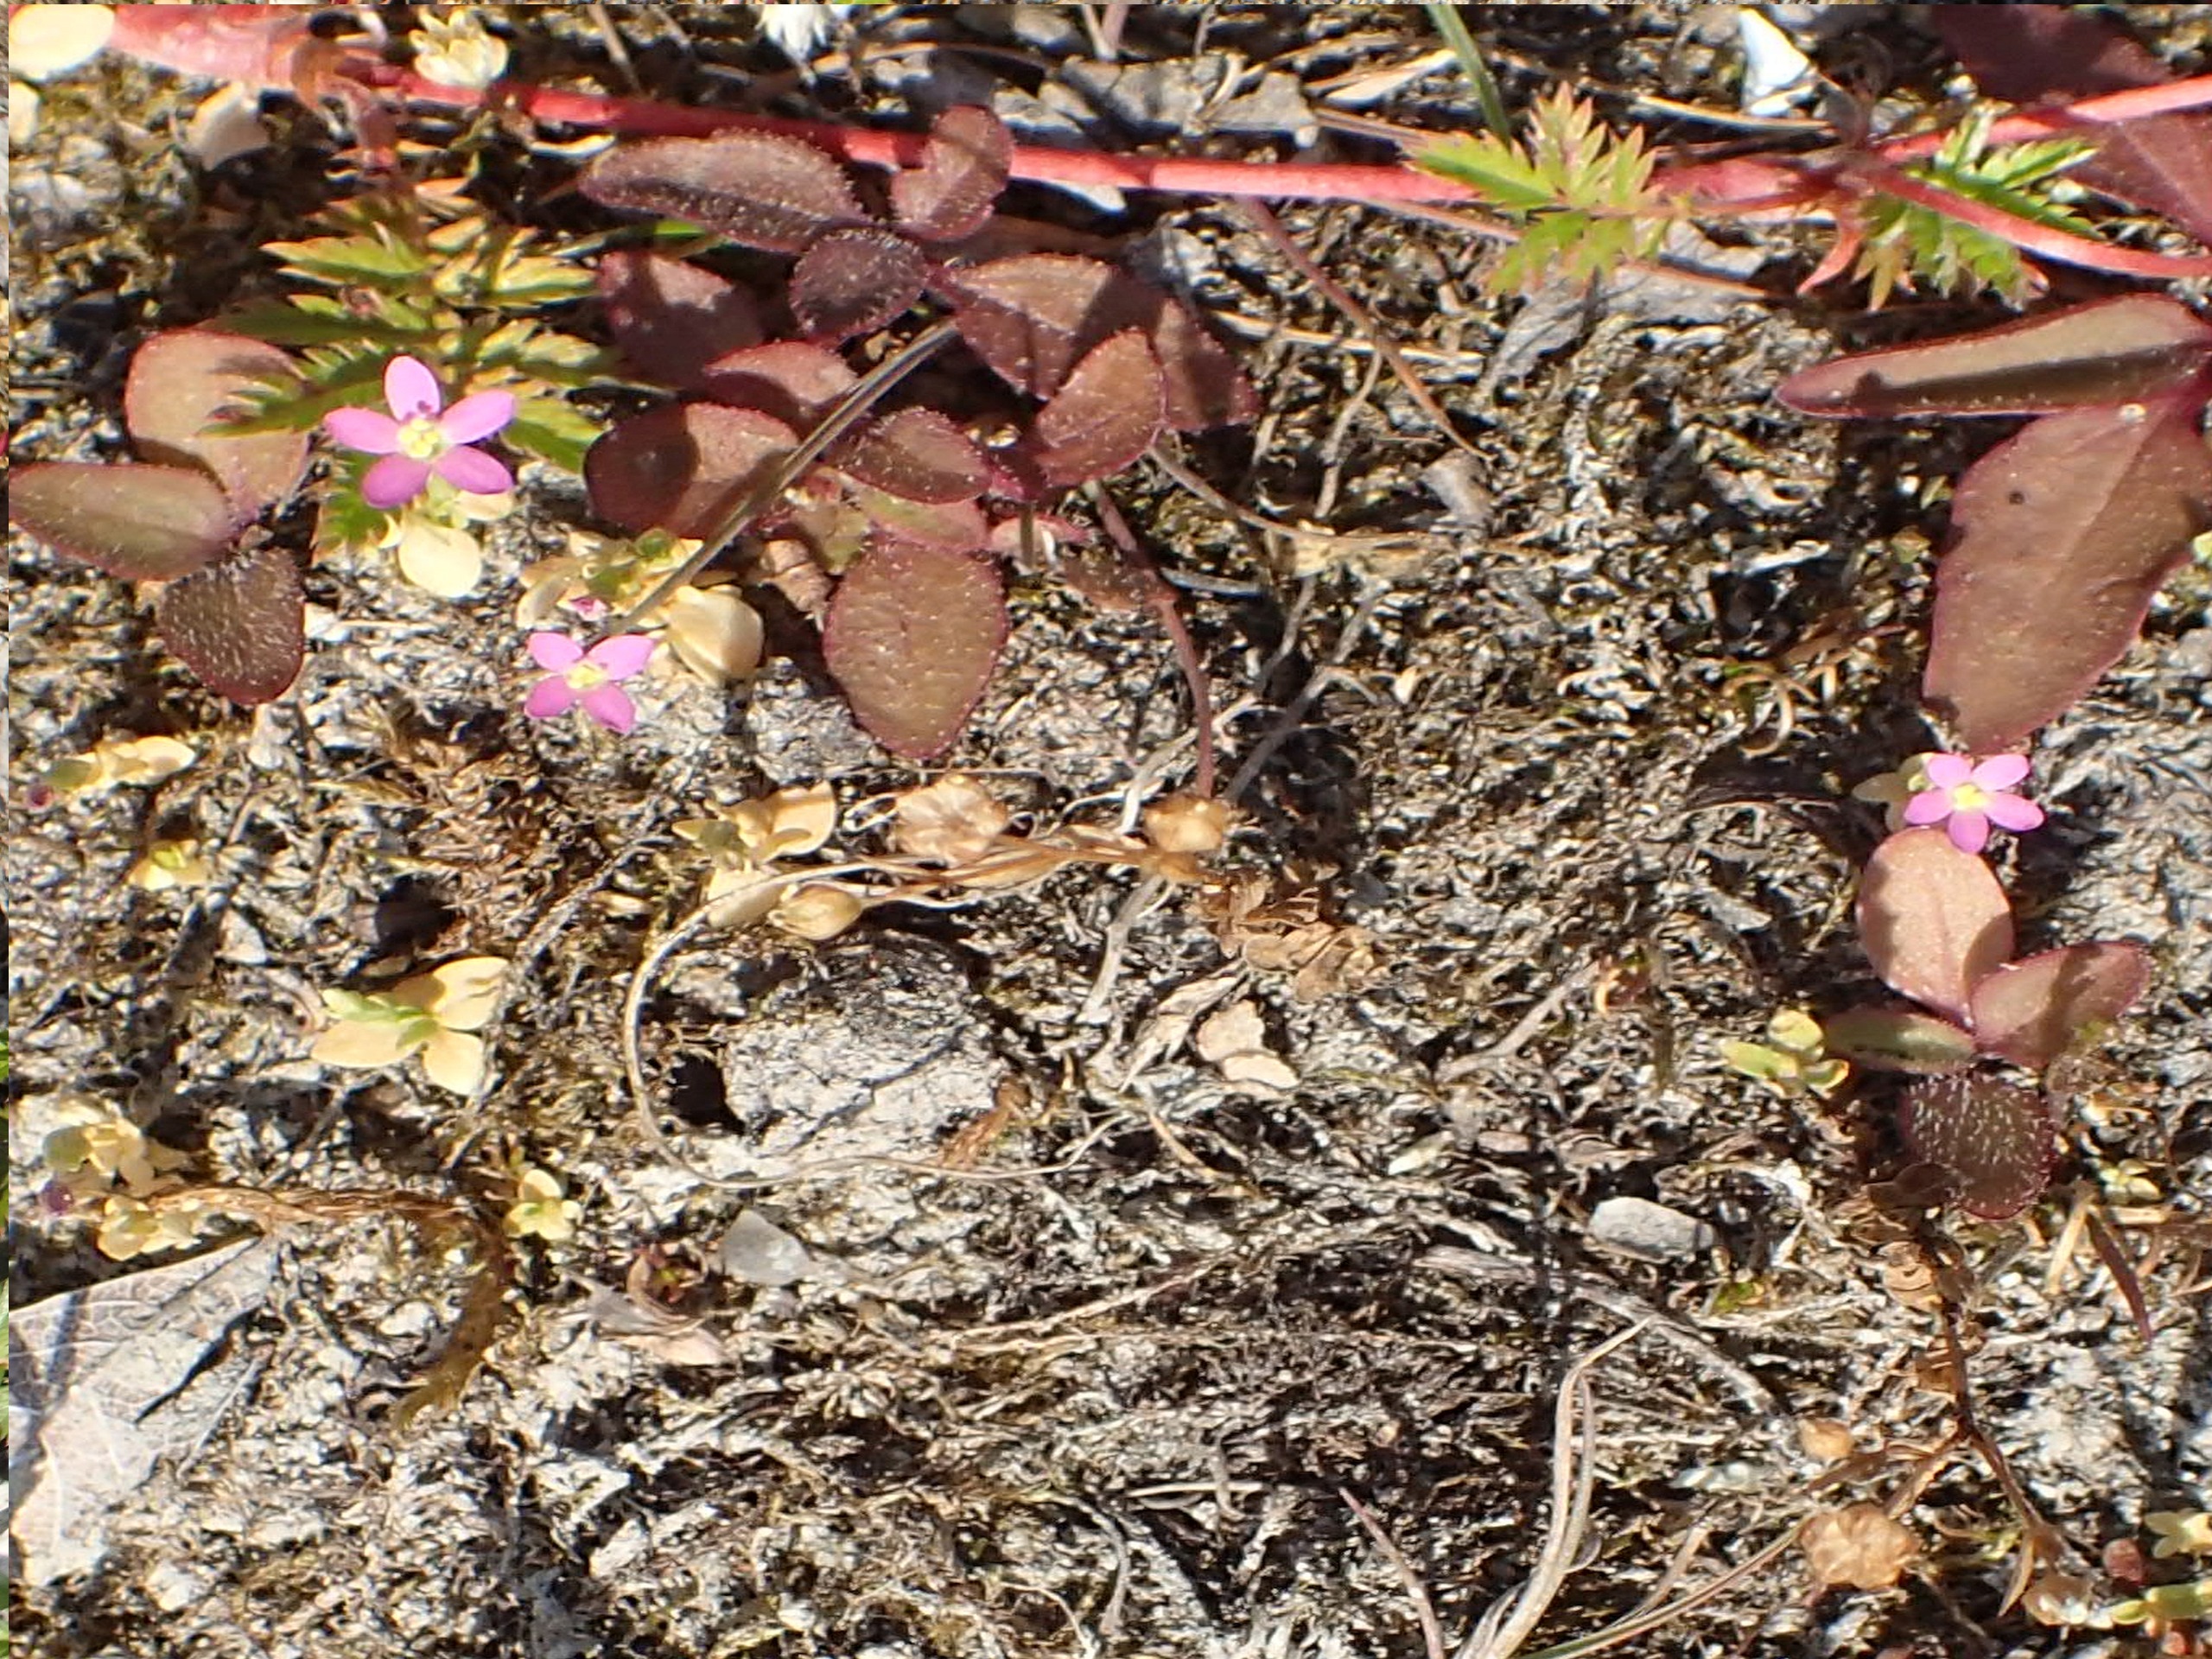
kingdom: Plantae
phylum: Tracheophyta
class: Magnoliopsida
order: Gentianales
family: Gentianaceae
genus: Centaurium
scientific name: Centaurium pulchellum
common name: Liden tusindgylden
